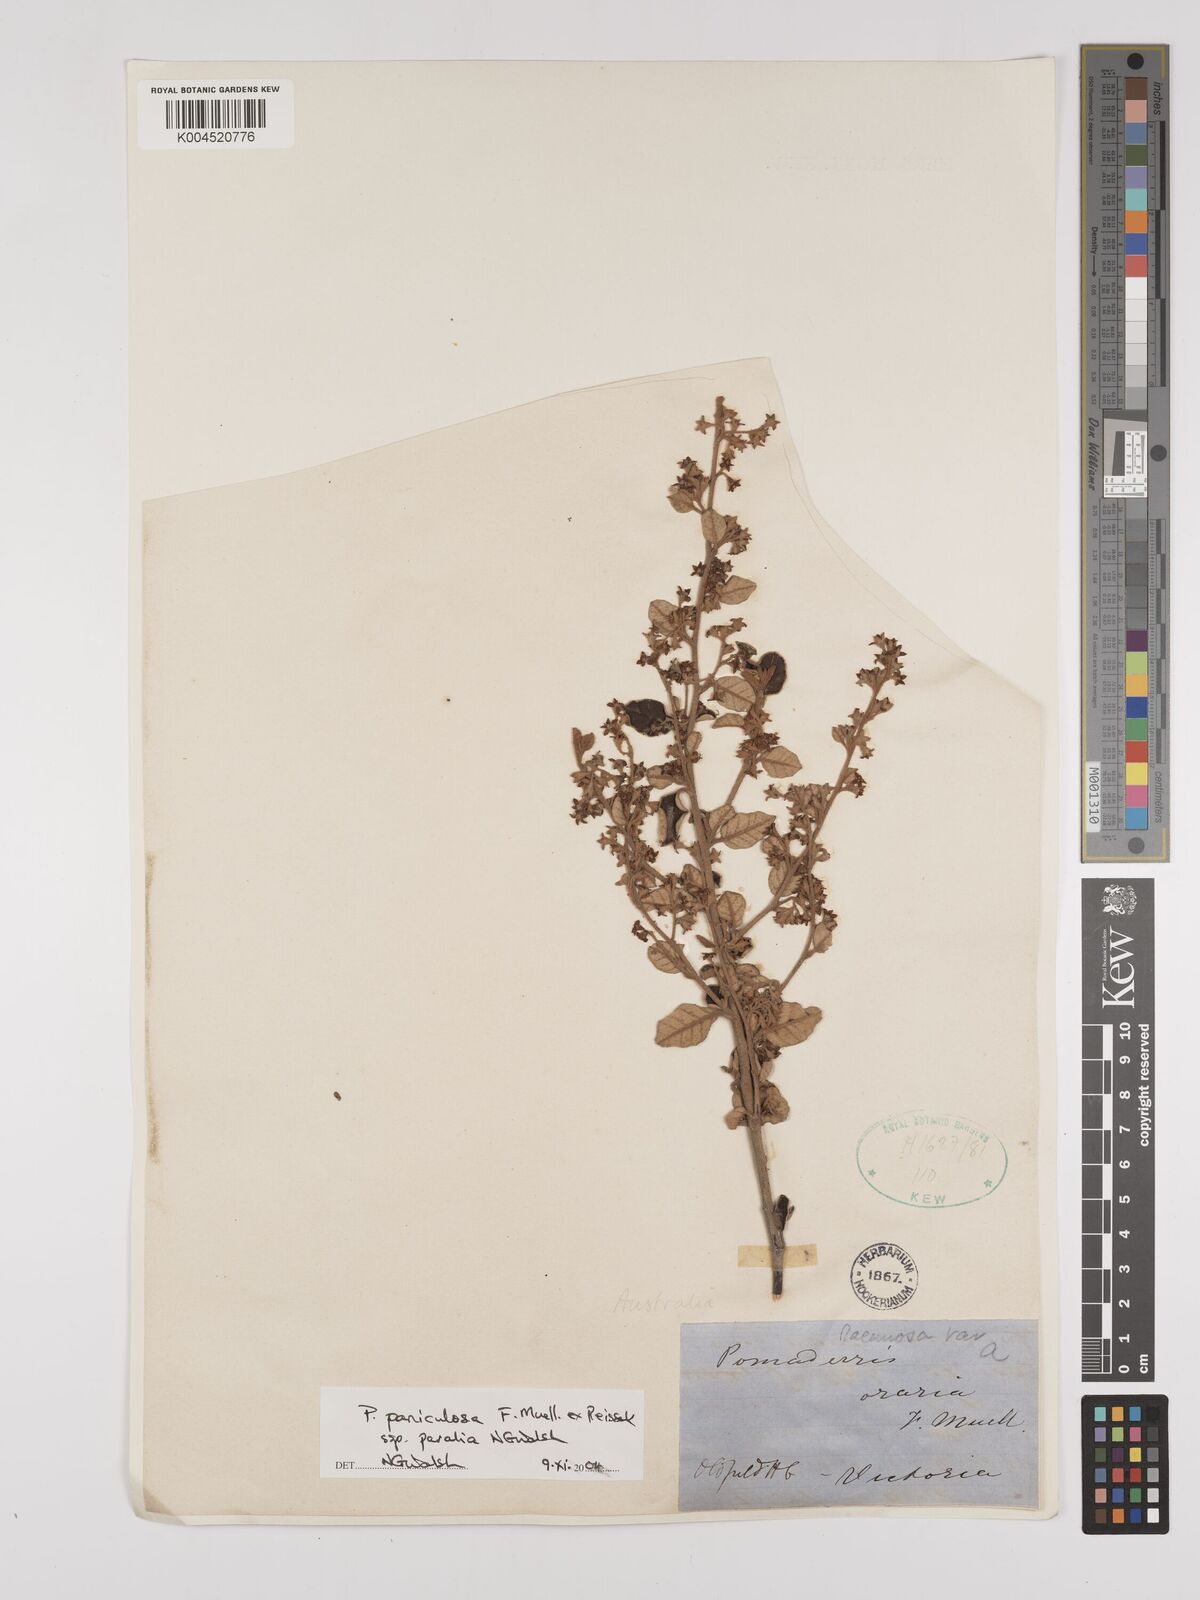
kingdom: Plantae
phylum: Tracheophyta
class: Magnoliopsida
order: Rosales
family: Rhamnaceae
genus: Pomaderris
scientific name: Pomaderris paniculosa
